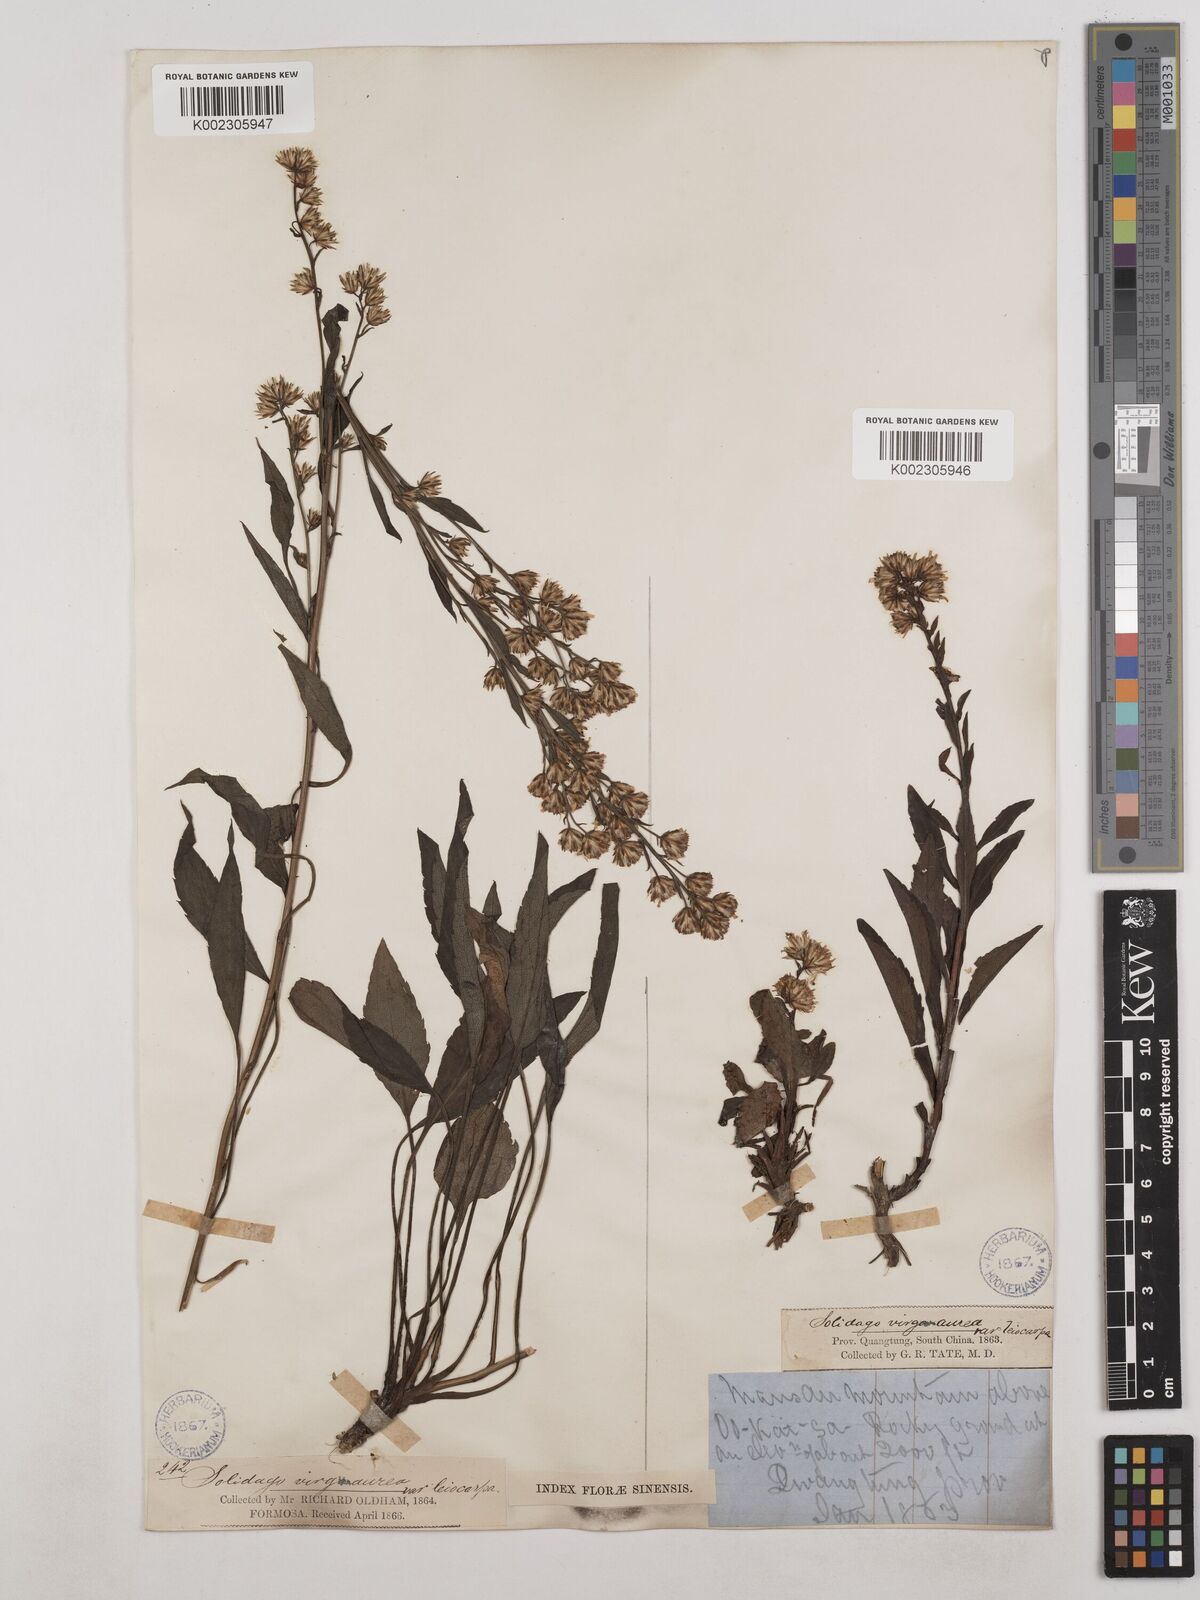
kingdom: Plantae
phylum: Tracheophyta
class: Magnoliopsida
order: Asterales
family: Asteraceae
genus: Solidago
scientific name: Solidago virgaurea
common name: Goldenrod
